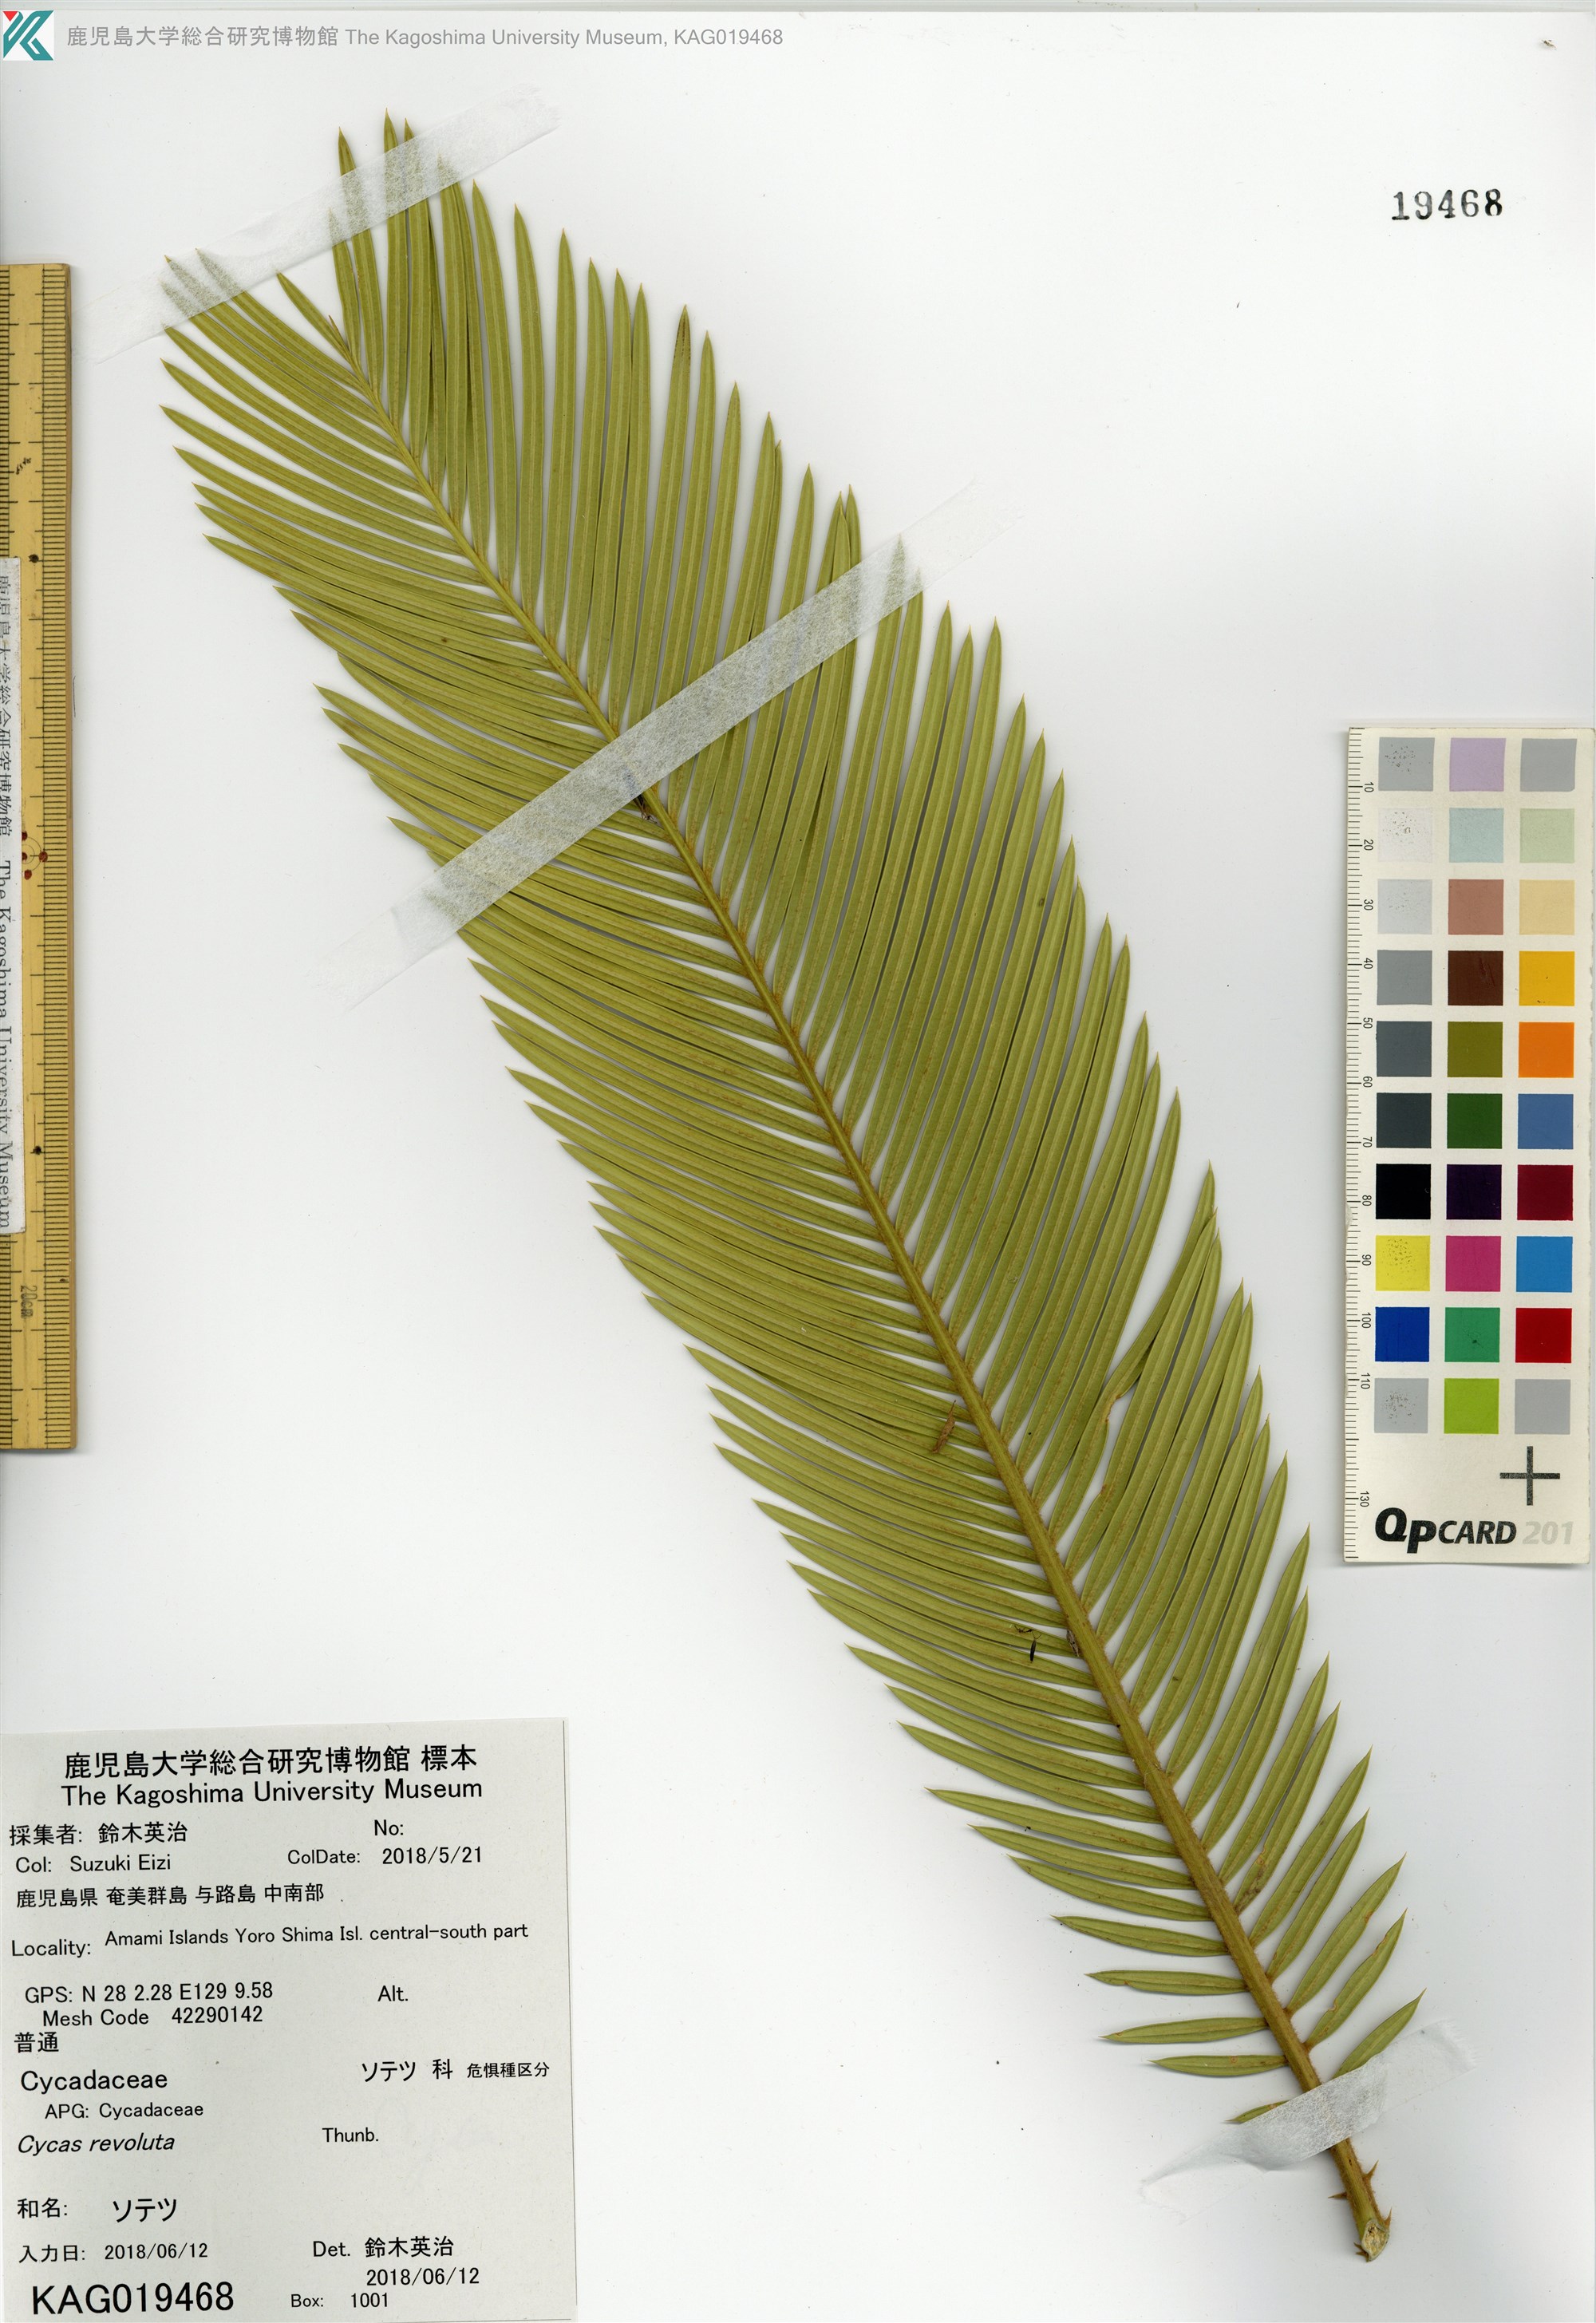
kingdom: Plantae
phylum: Tracheophyta
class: Cycadopsida
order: Cycadales
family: Cycadaceae
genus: Cycas
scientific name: Cycas revoluta
